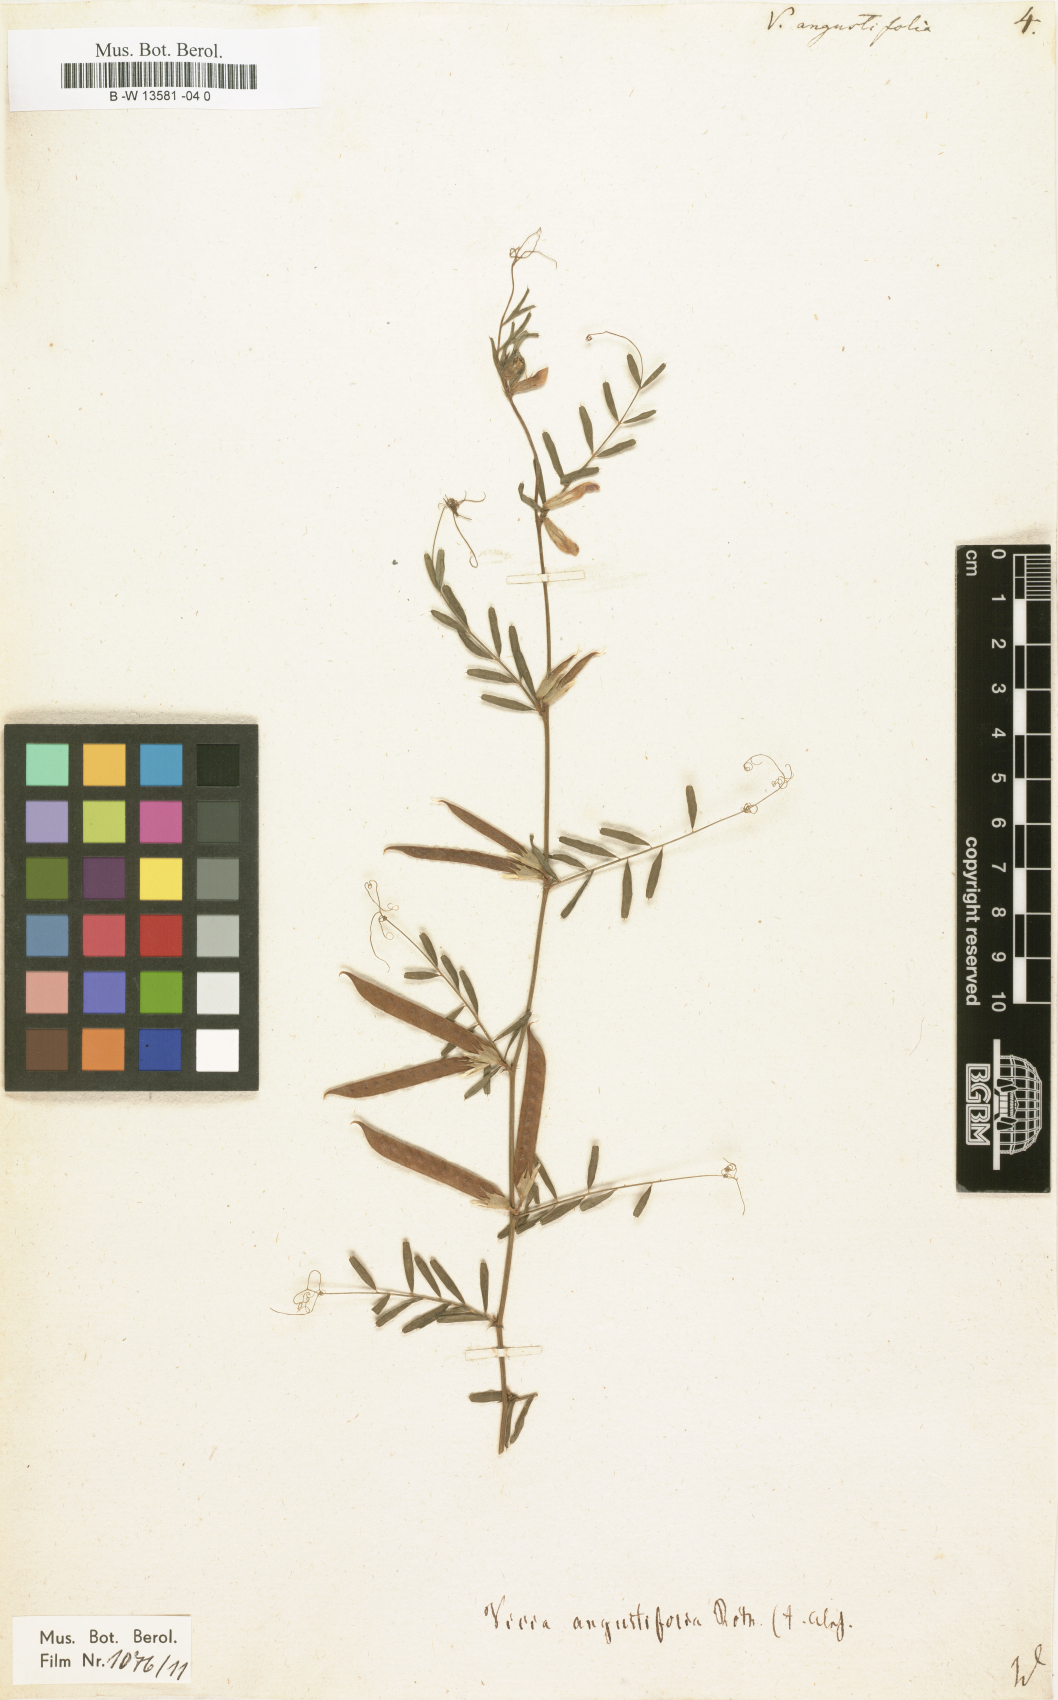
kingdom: Plantae
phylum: Tracheophyta
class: Magnoliopsida
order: Fabales
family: Fabaceae
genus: Vicia
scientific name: Vicia
